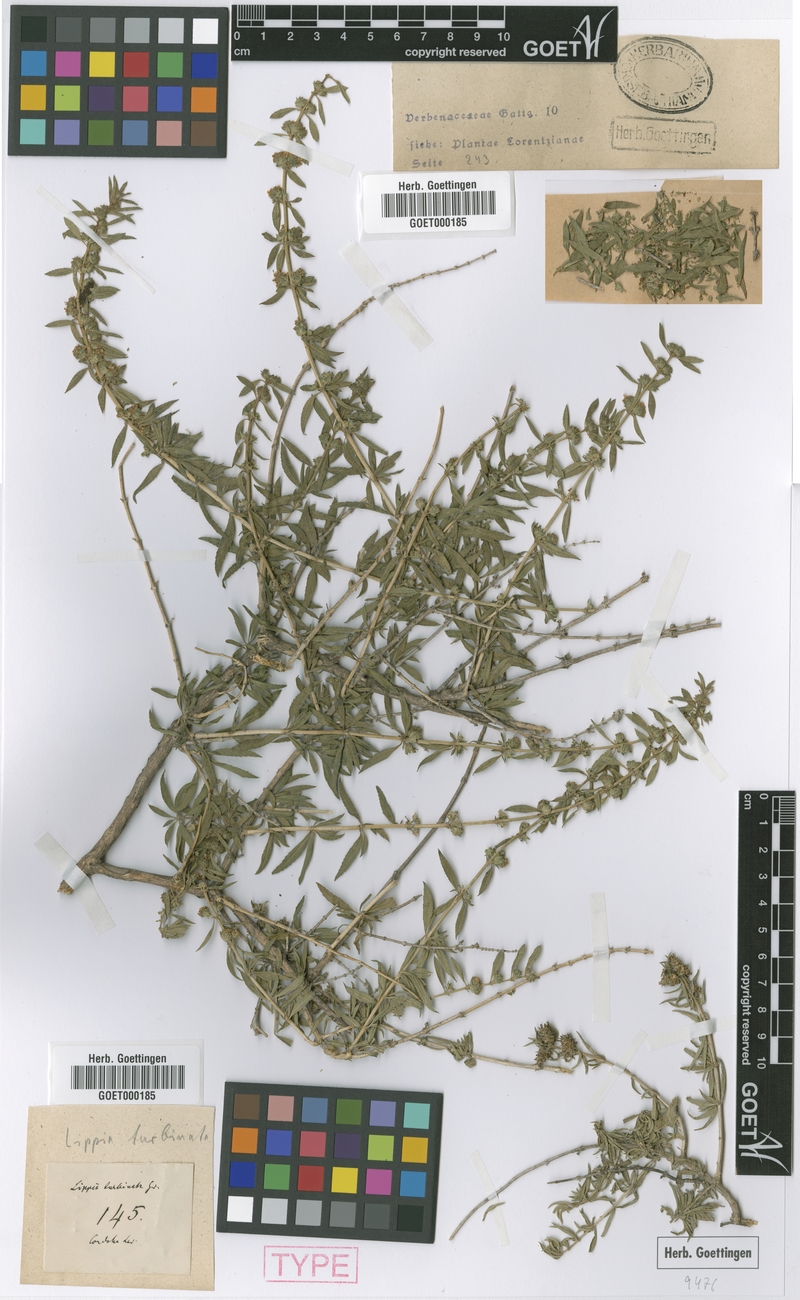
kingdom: Plantae
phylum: Tracheophyta
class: Magnoliopsida
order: Lamiales
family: Verbenaceae
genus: Lippia
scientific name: Lippia turbinata
